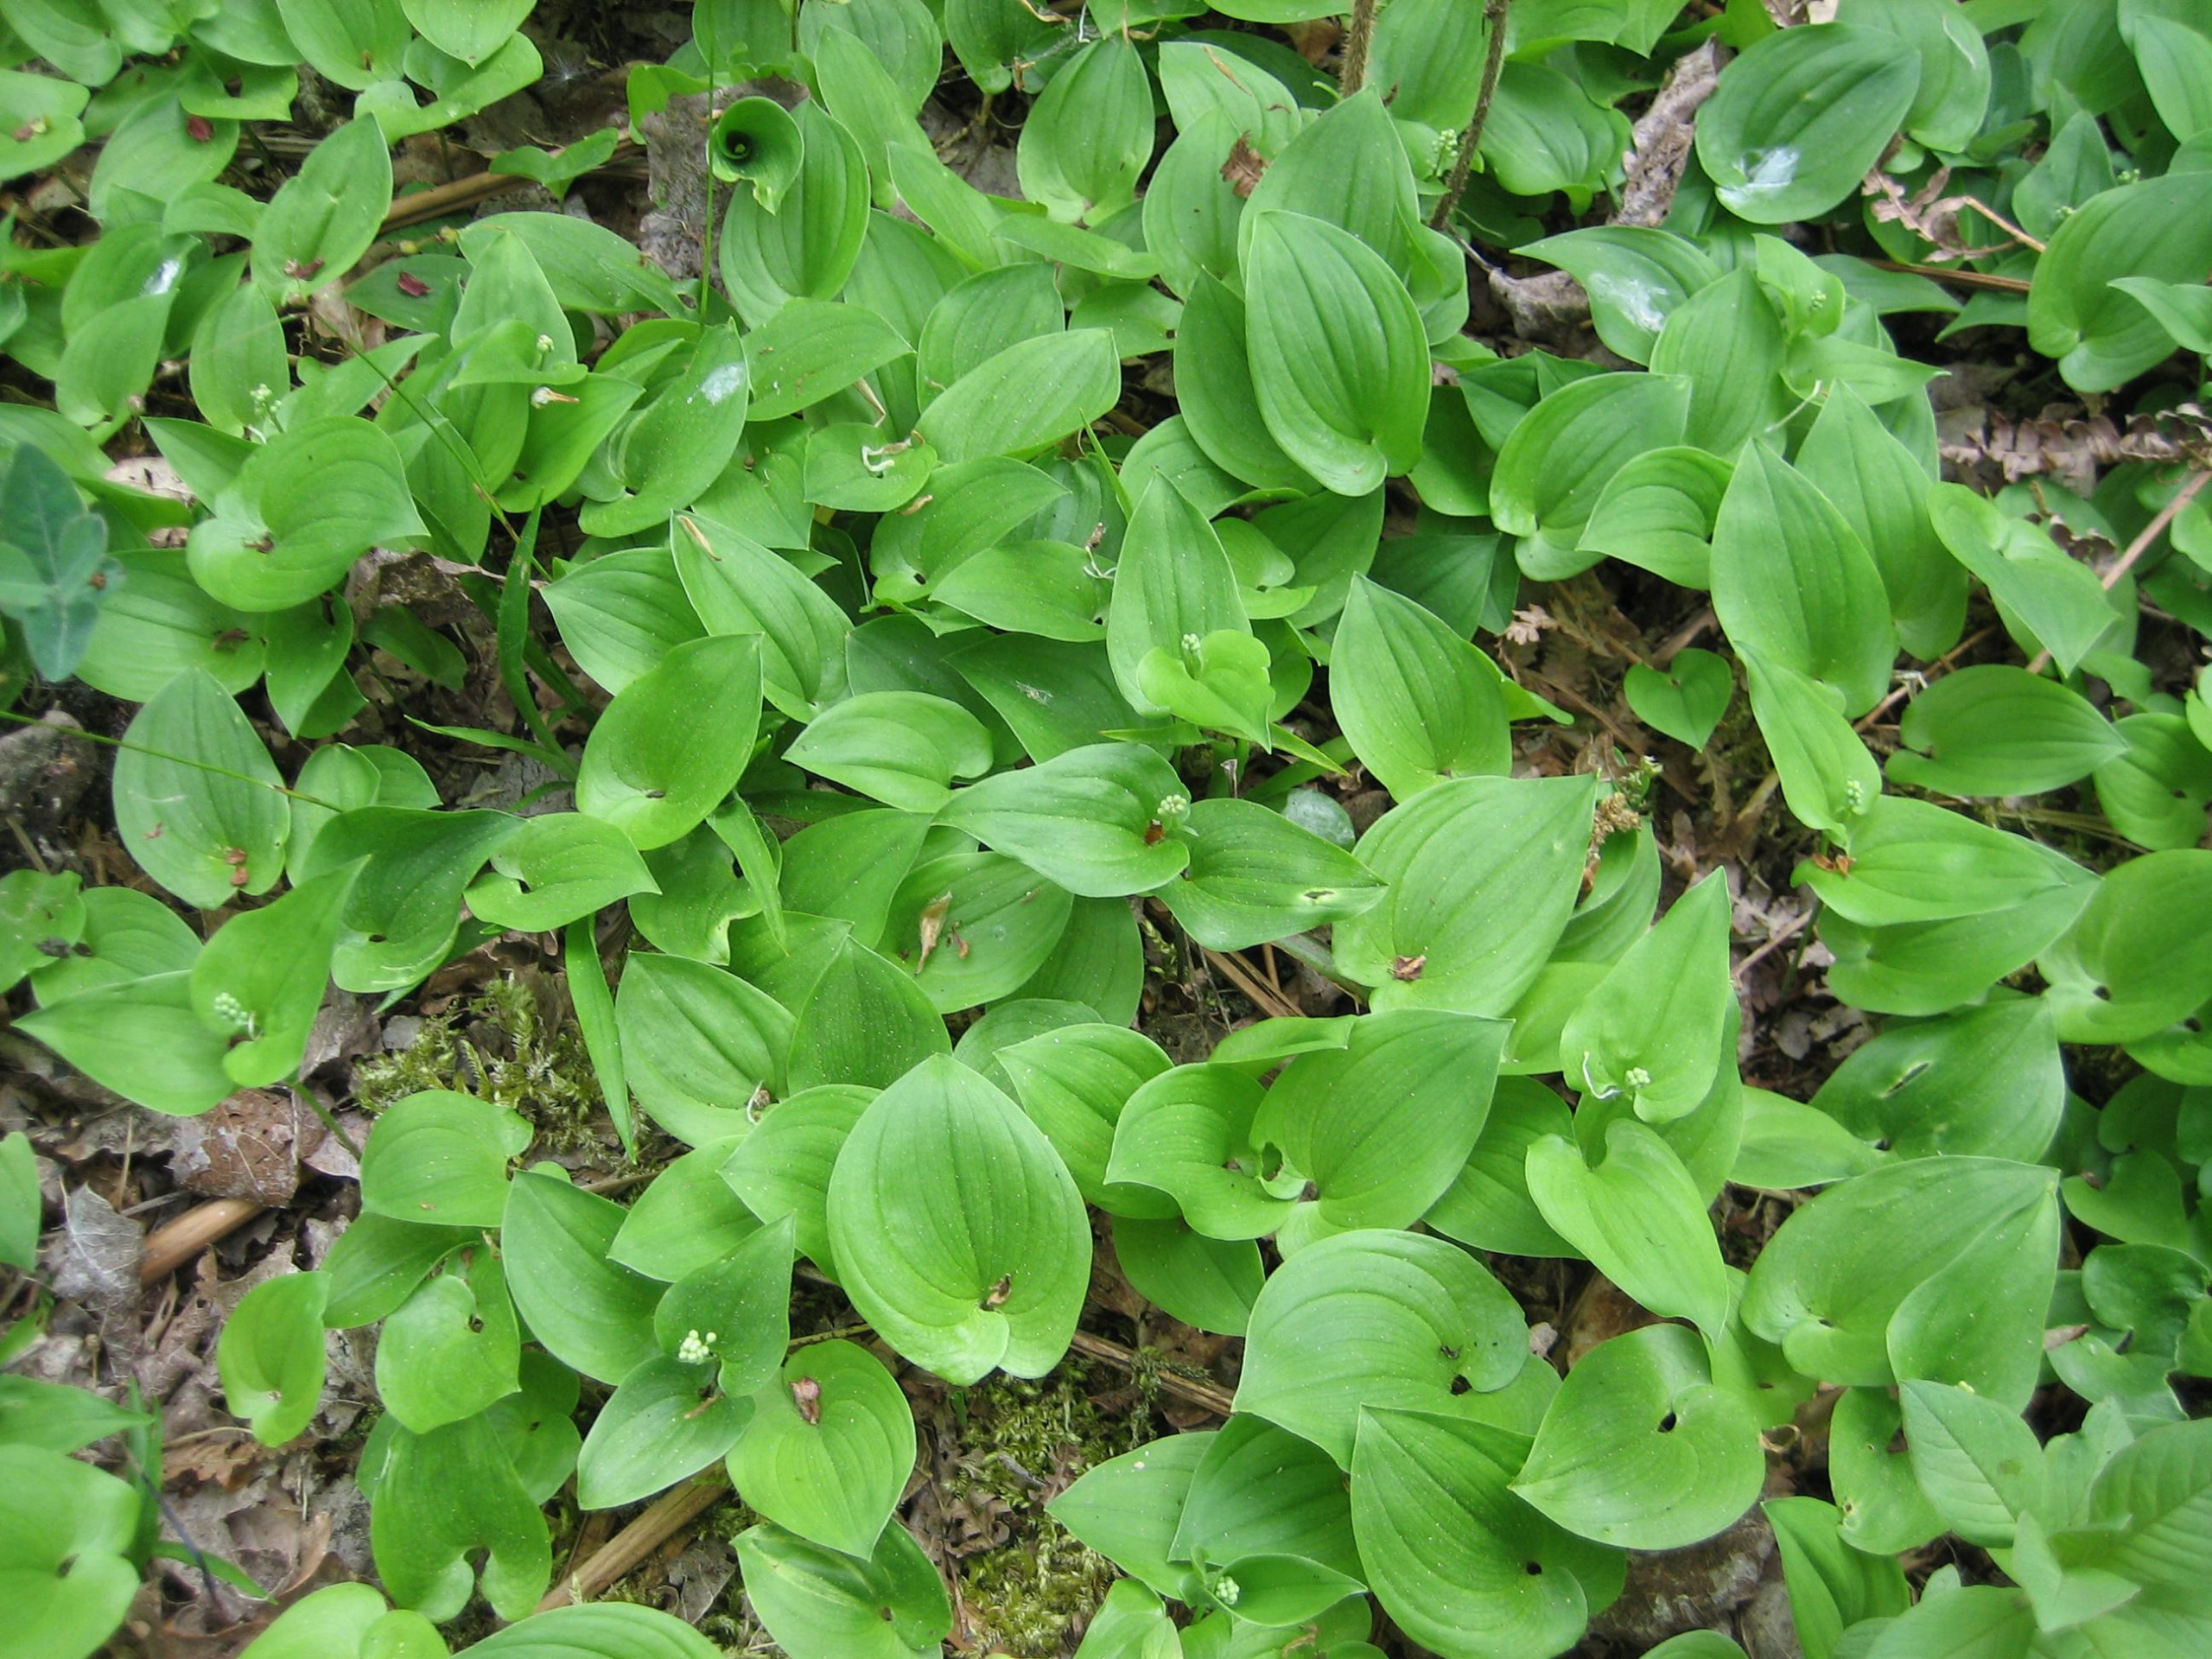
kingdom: Plantae
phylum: Tracheophyta
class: Liliopsida
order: Asparagales
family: Asparagaceae
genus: Maianthemum
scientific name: Maianthemum bifolium
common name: Majblomst
